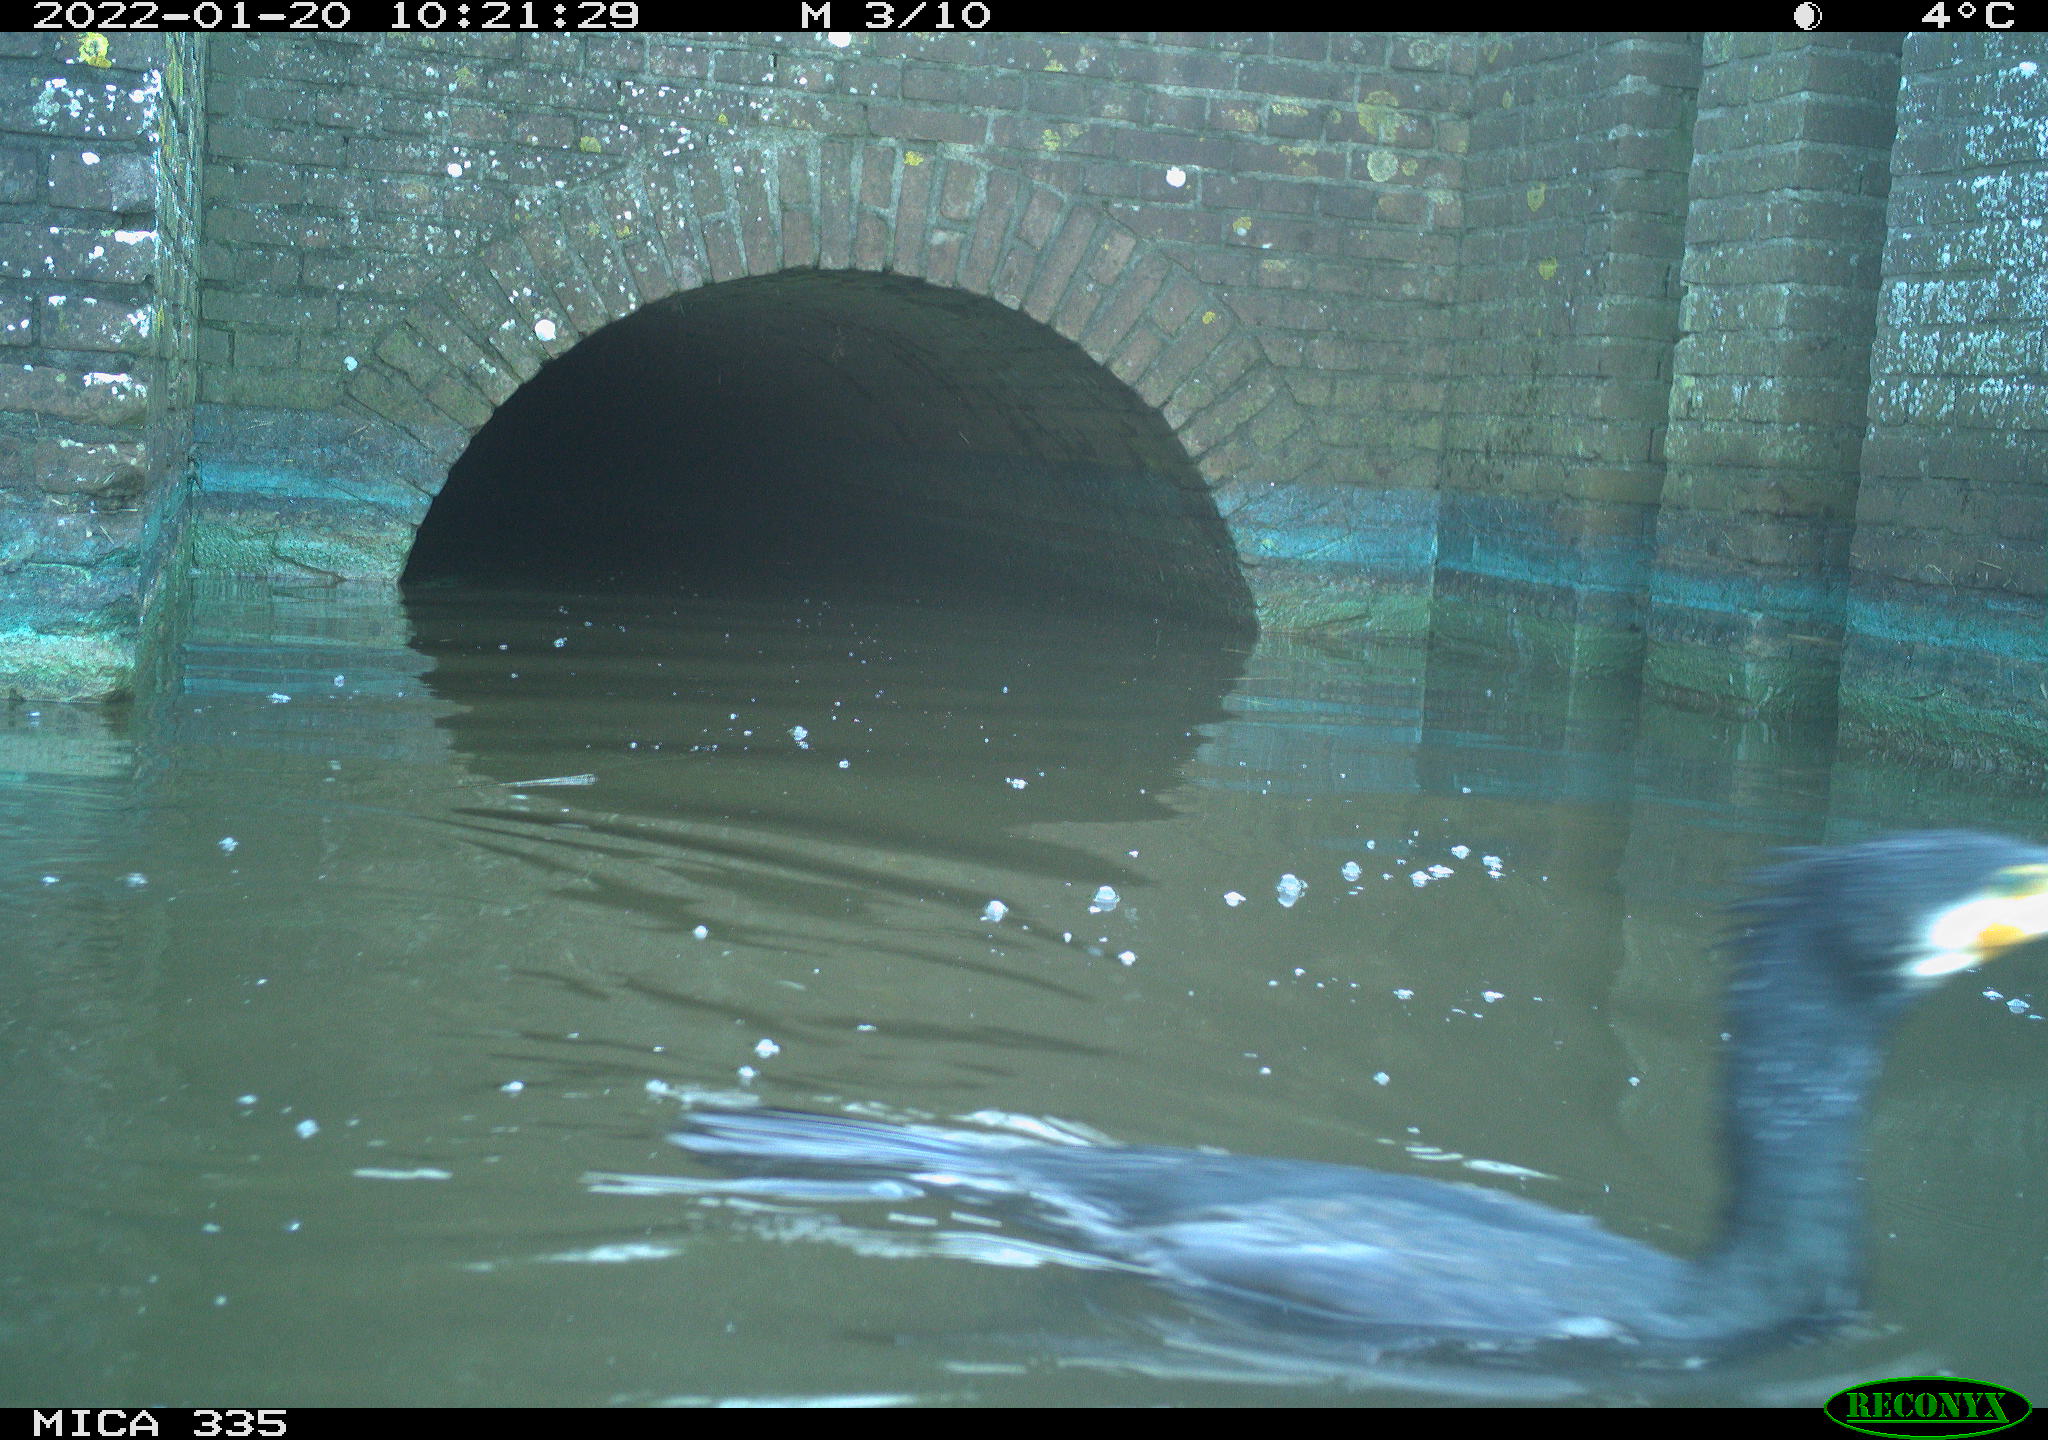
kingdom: Animalia
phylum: Chordata
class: Aves
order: Suliformes
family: Phalacrocoracidae
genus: Phalacrocorax
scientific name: Phalacrocorax carbo
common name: Great cormorant
